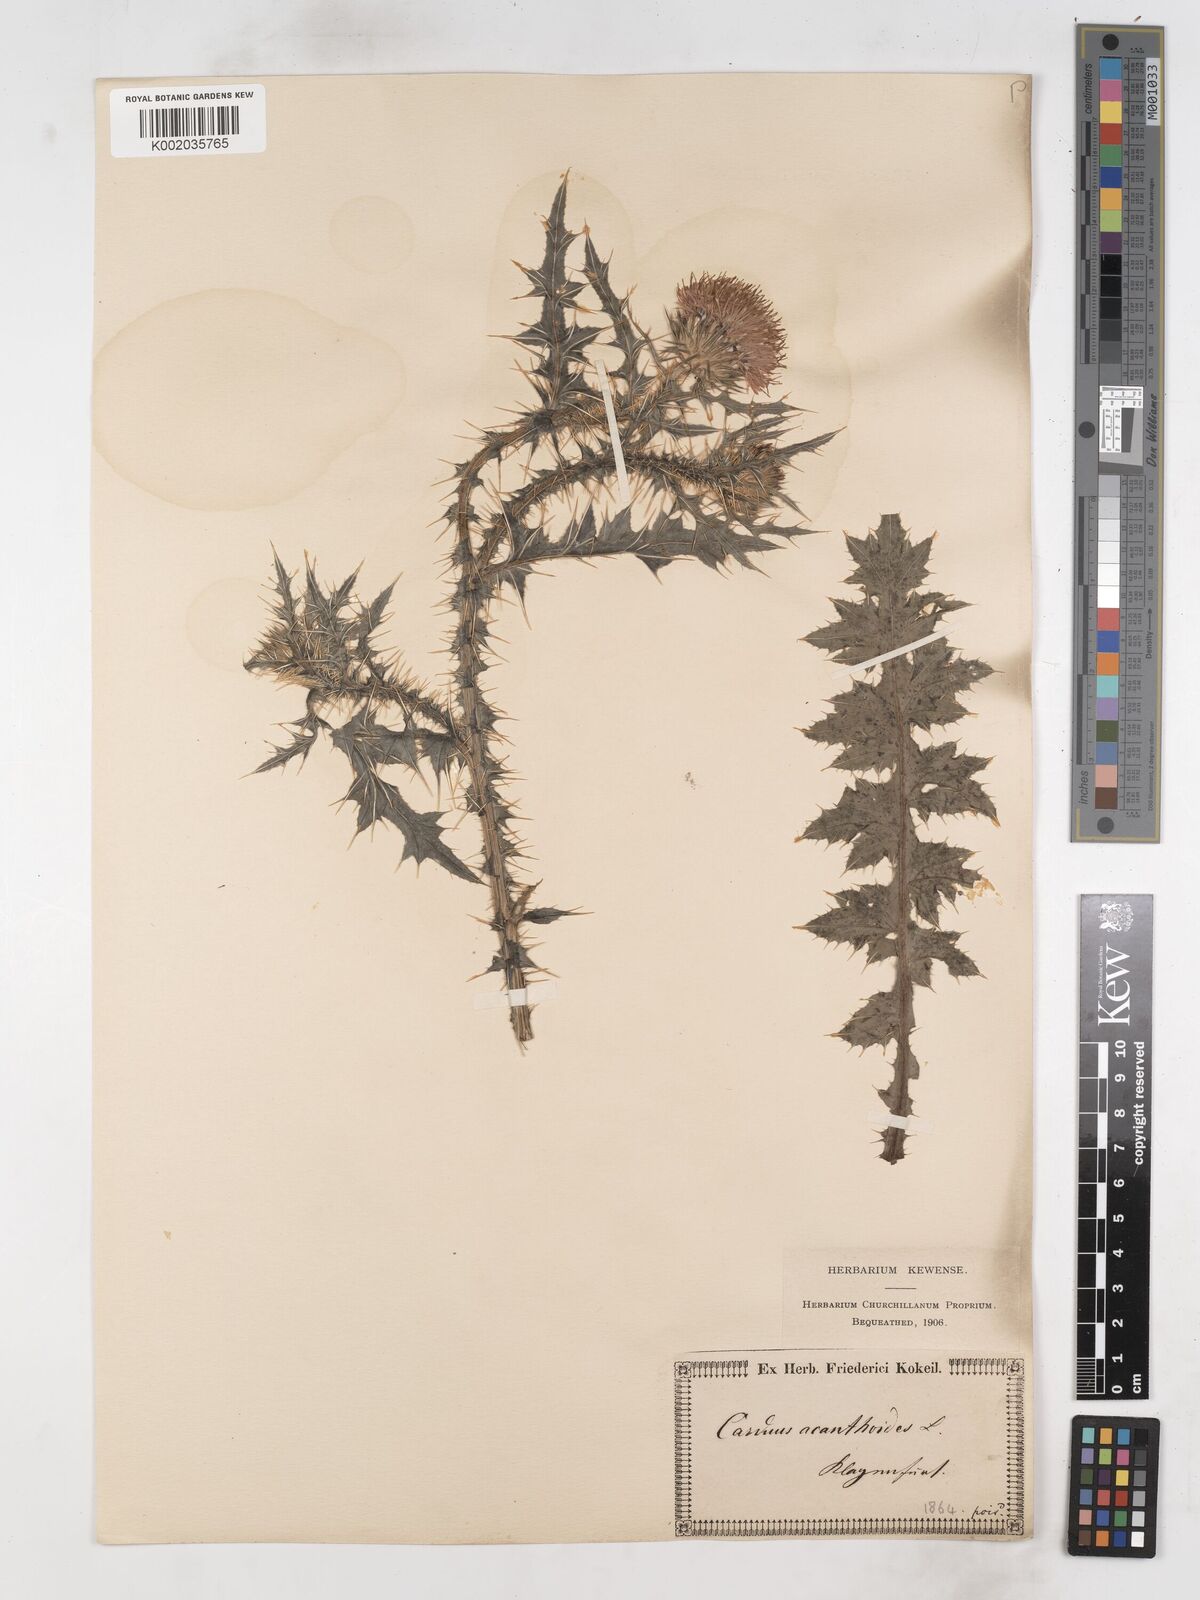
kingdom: Plantae
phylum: Tracheophyta
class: Magnoliopsida
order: Asterales
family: Asteraceae
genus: Carduus
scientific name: Carduus acanthoides
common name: Plumeless thistle
